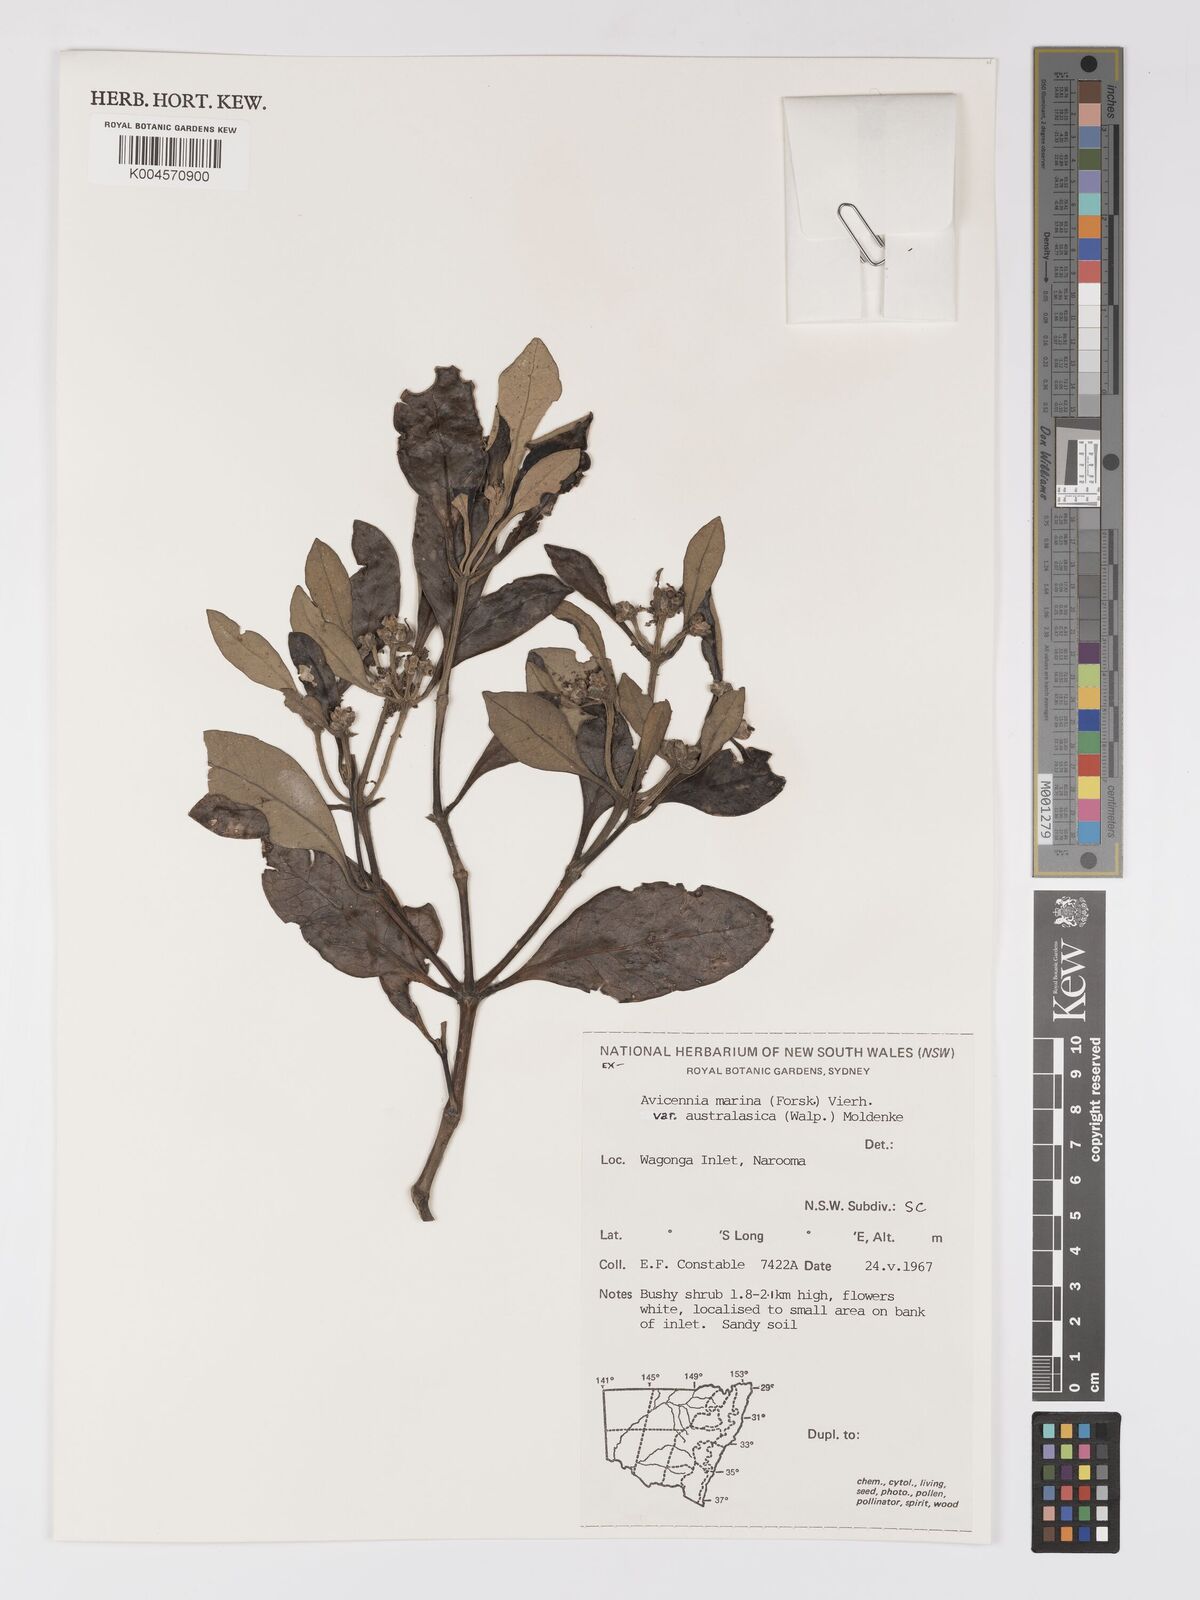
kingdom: Plantae
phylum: Tracheophyta
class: Magnoliopsida
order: Lamiales
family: Acanthaceae
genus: Avicennia
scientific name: Avicennia marina
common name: Gray mangrove
